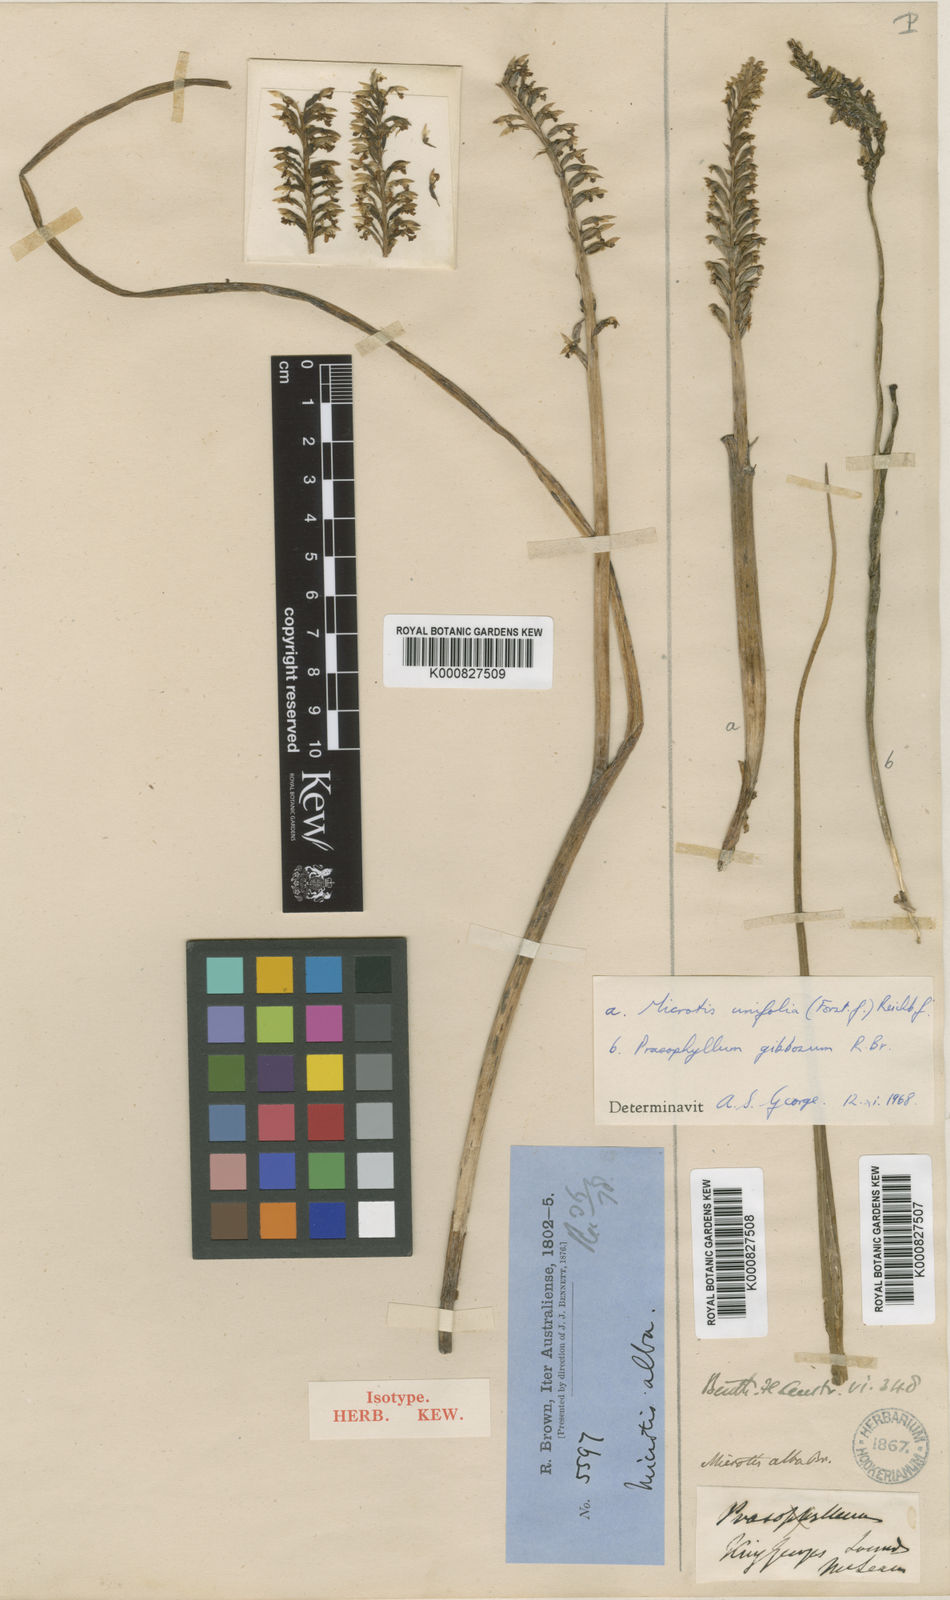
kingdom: Plantae
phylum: Tracheophyta
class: Liliopsida
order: Asparagales
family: Orchidaceae
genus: Microtis
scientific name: Microtis alba
